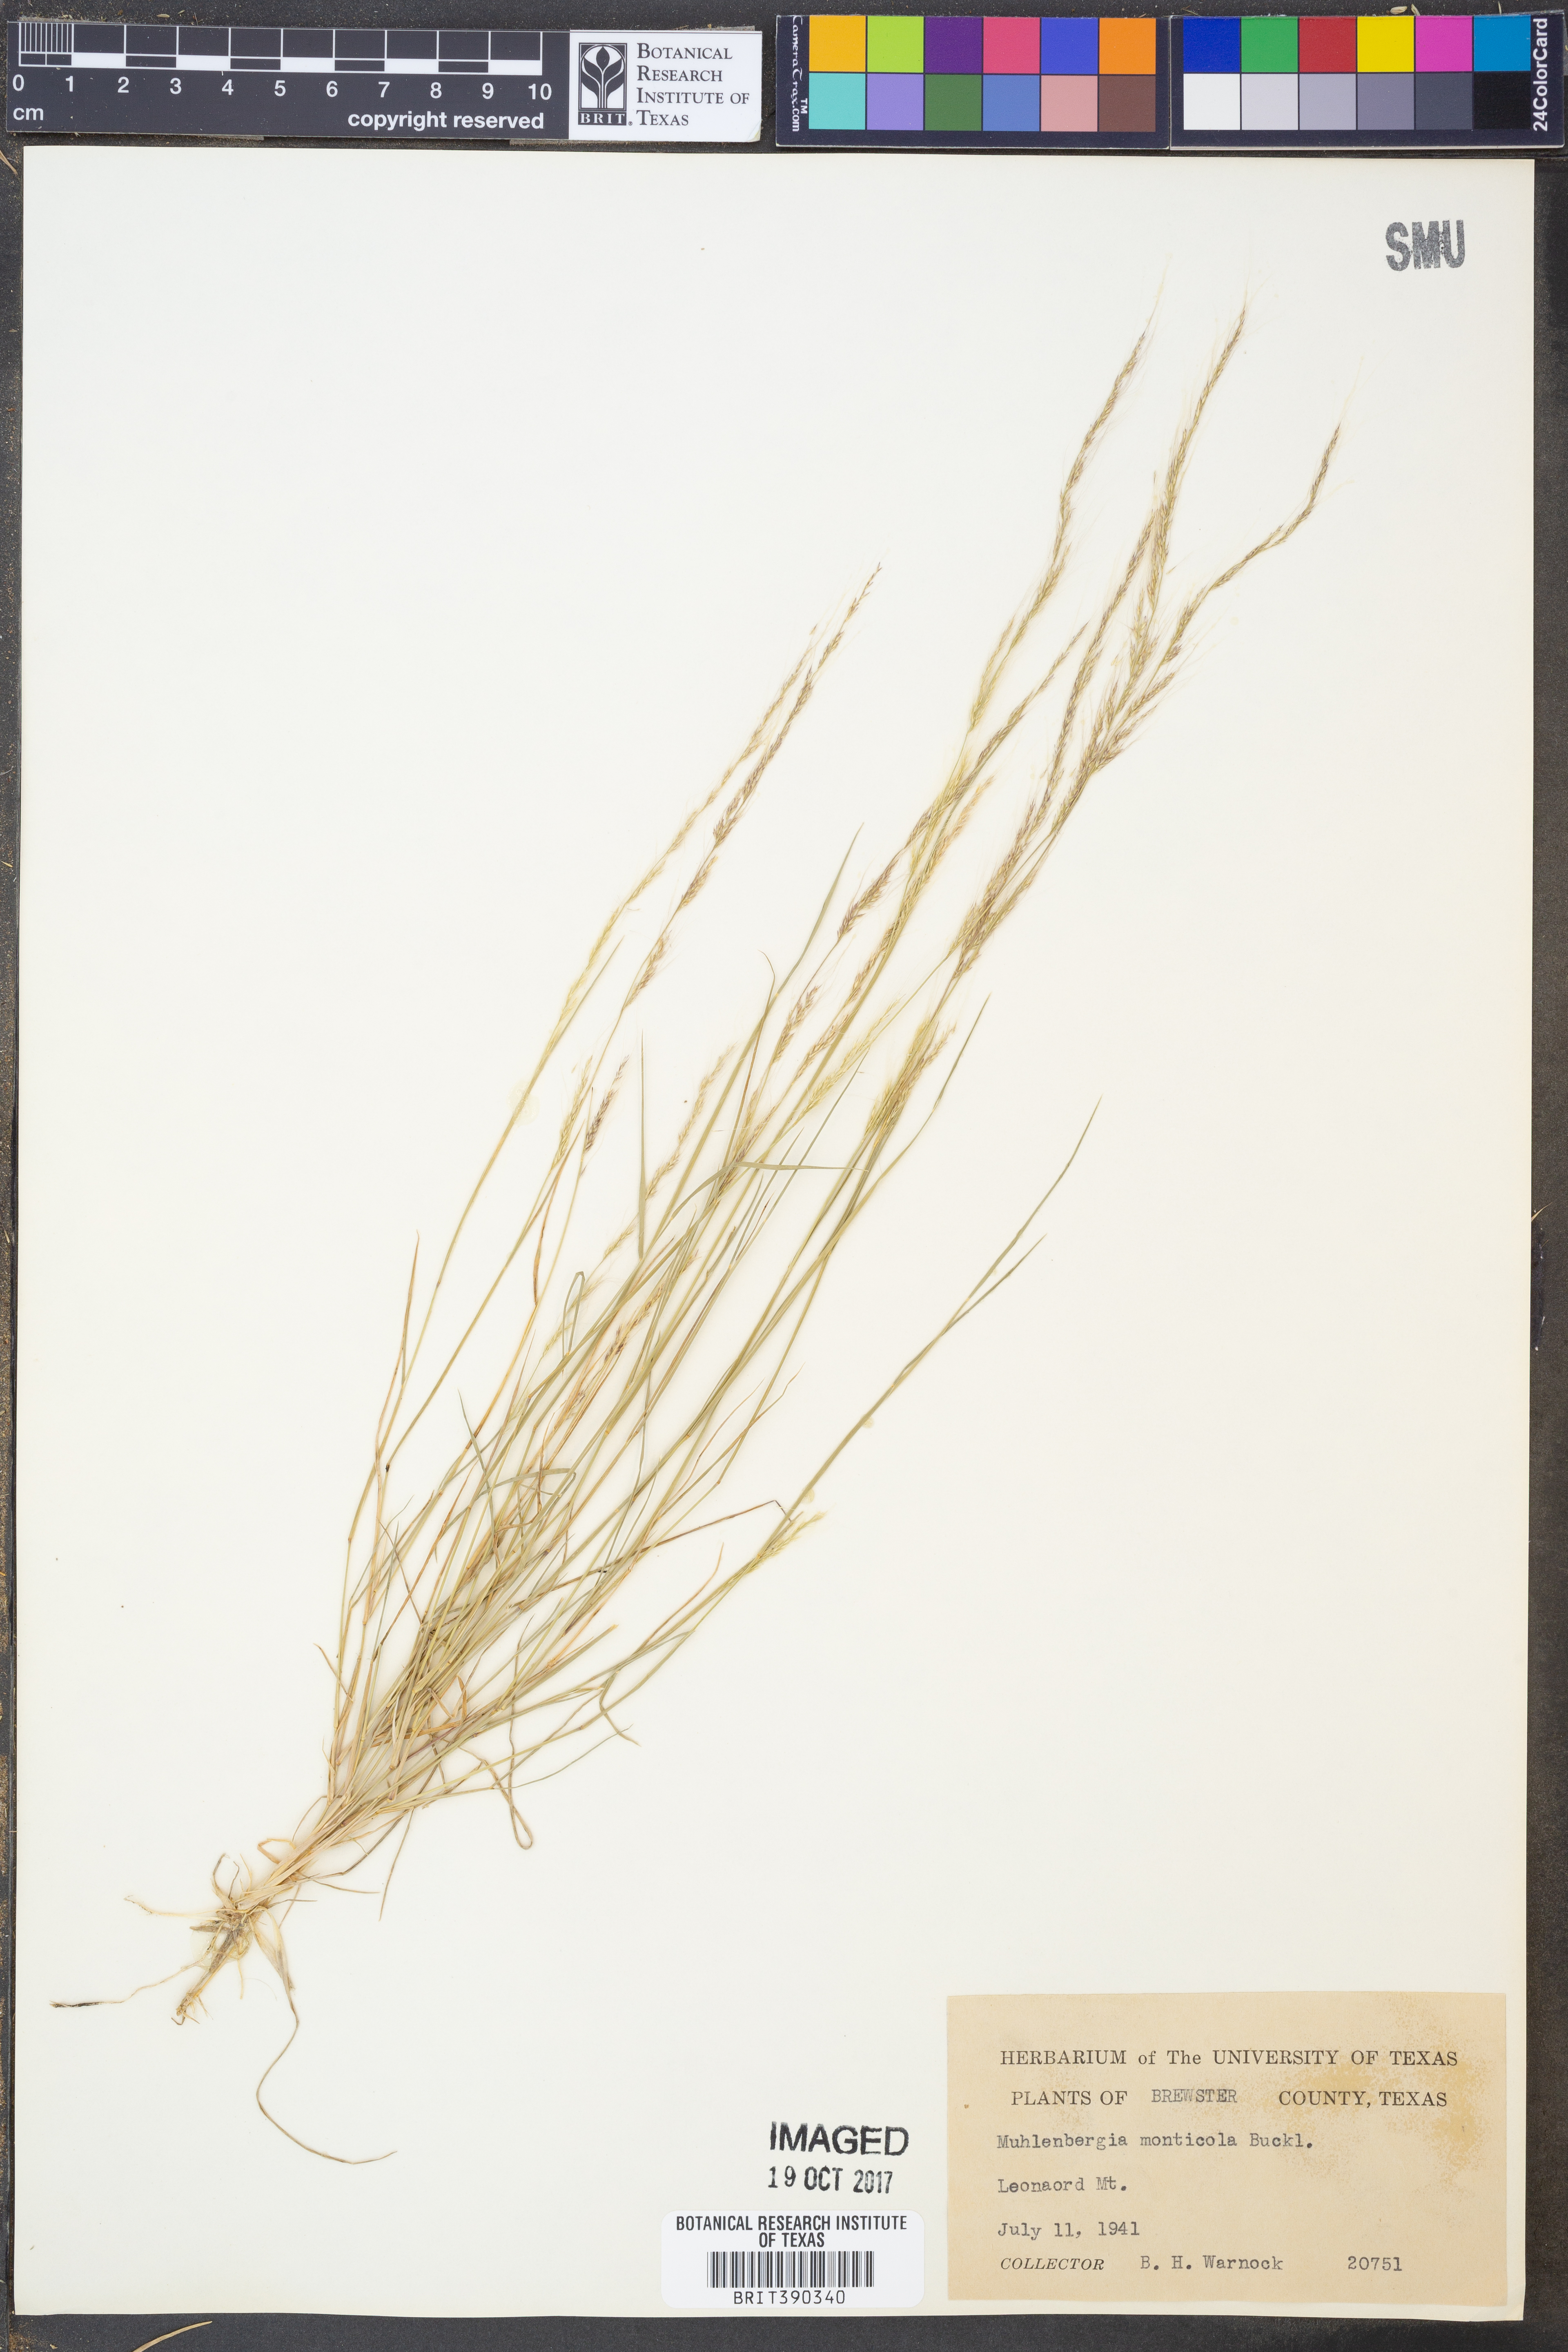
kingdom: Plantae
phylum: Tracheophyta
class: Liliopsida
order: Poales
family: Poaceae
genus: Muhlenbergia
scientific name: Muhlenbergia tenuifolia
